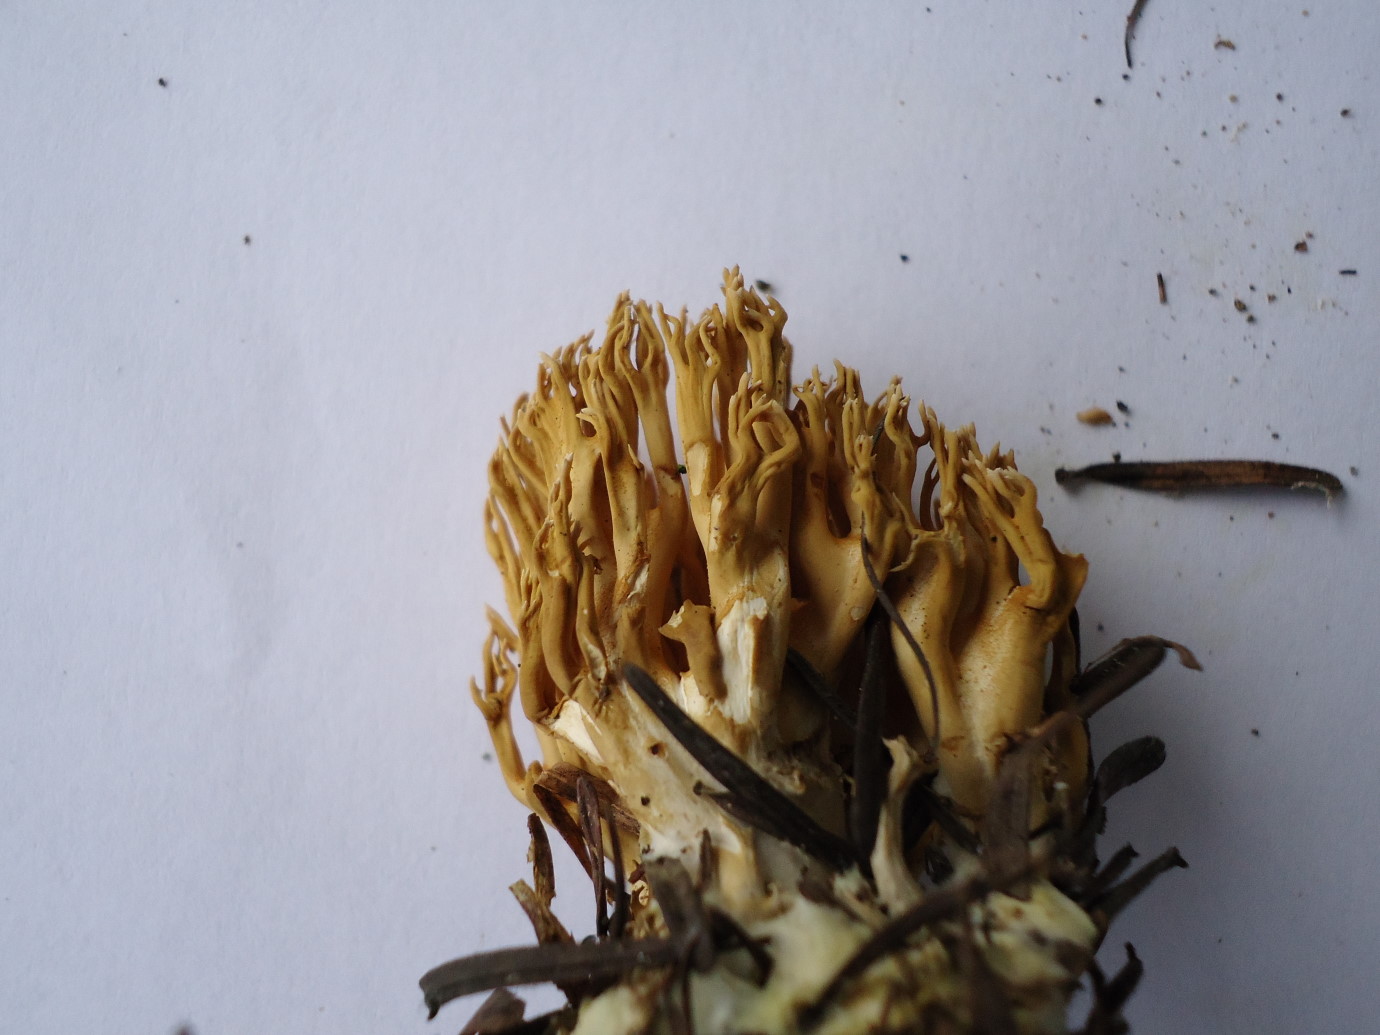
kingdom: Fungi
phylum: Basidiomycota
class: Agaricomycetes
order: Gomphales
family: Gomphaceae
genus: Phaeoclavulina
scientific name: Phaeoclavulina eumorpha
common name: gran-koralsvamp
